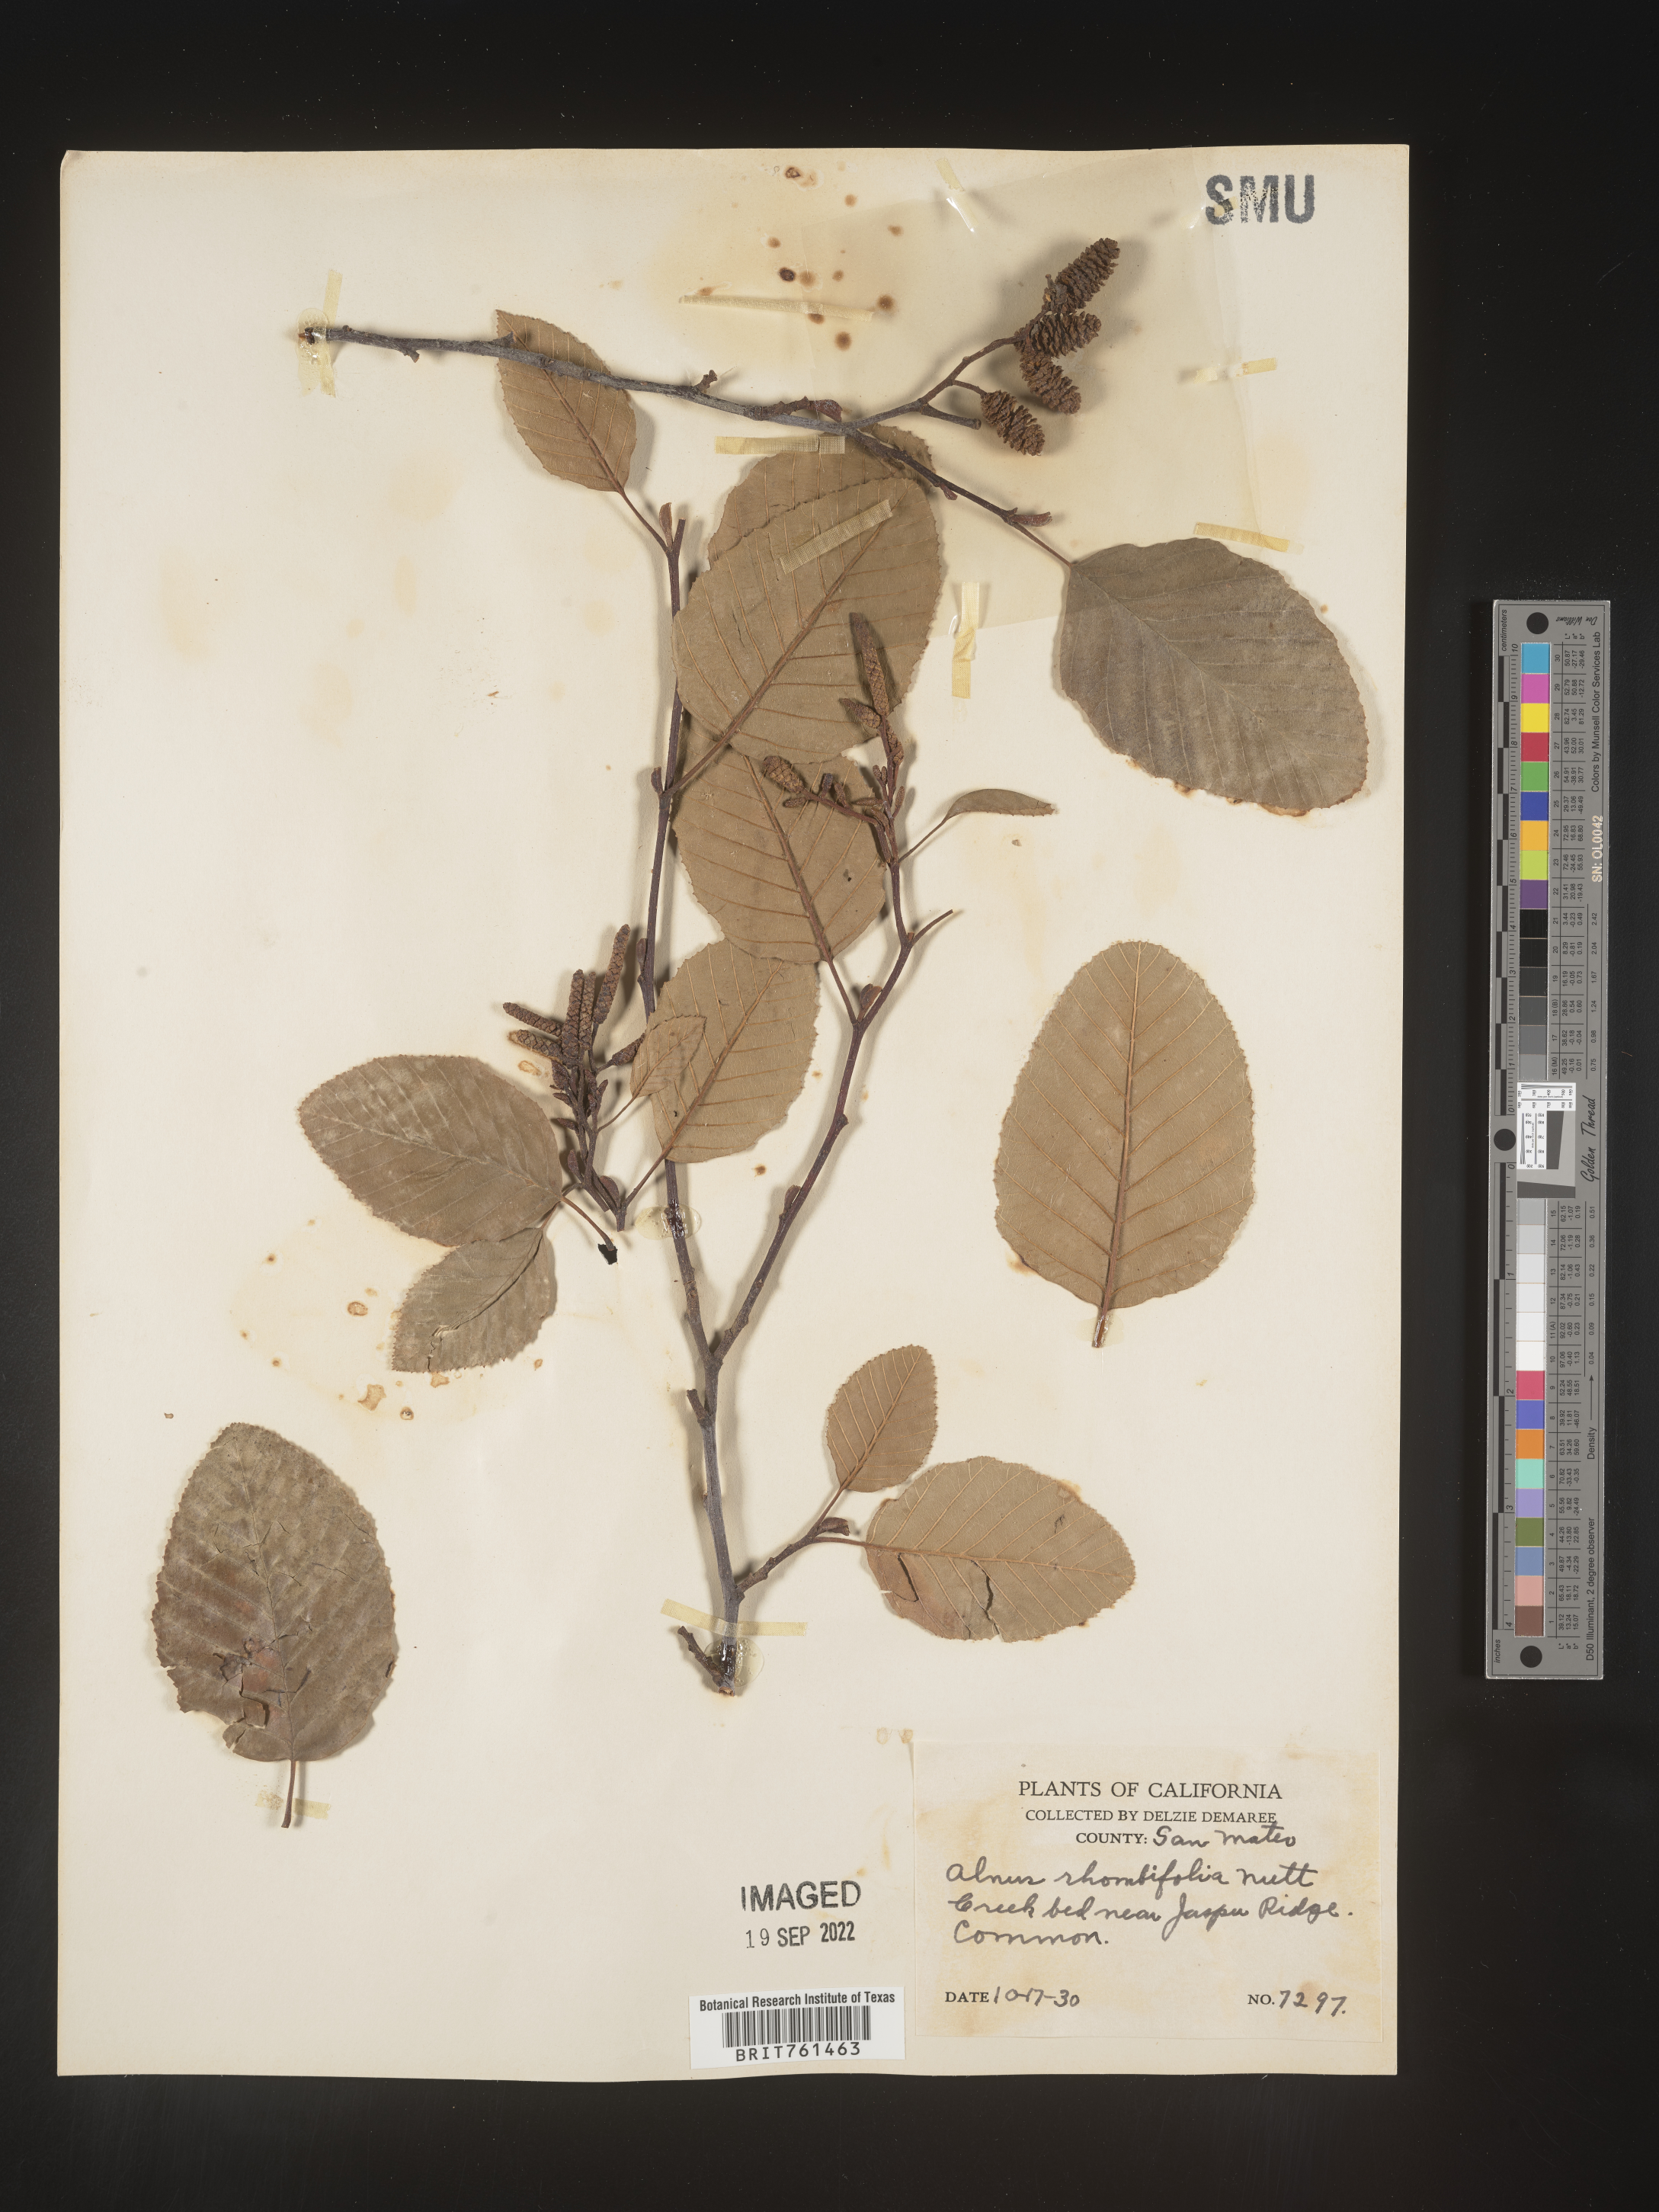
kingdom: Plantae
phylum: Tracheophyta
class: Magnoliopsida
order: Fagales
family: Betulaceae
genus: Alnus
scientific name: Alnus rhombifolia
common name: California alder
